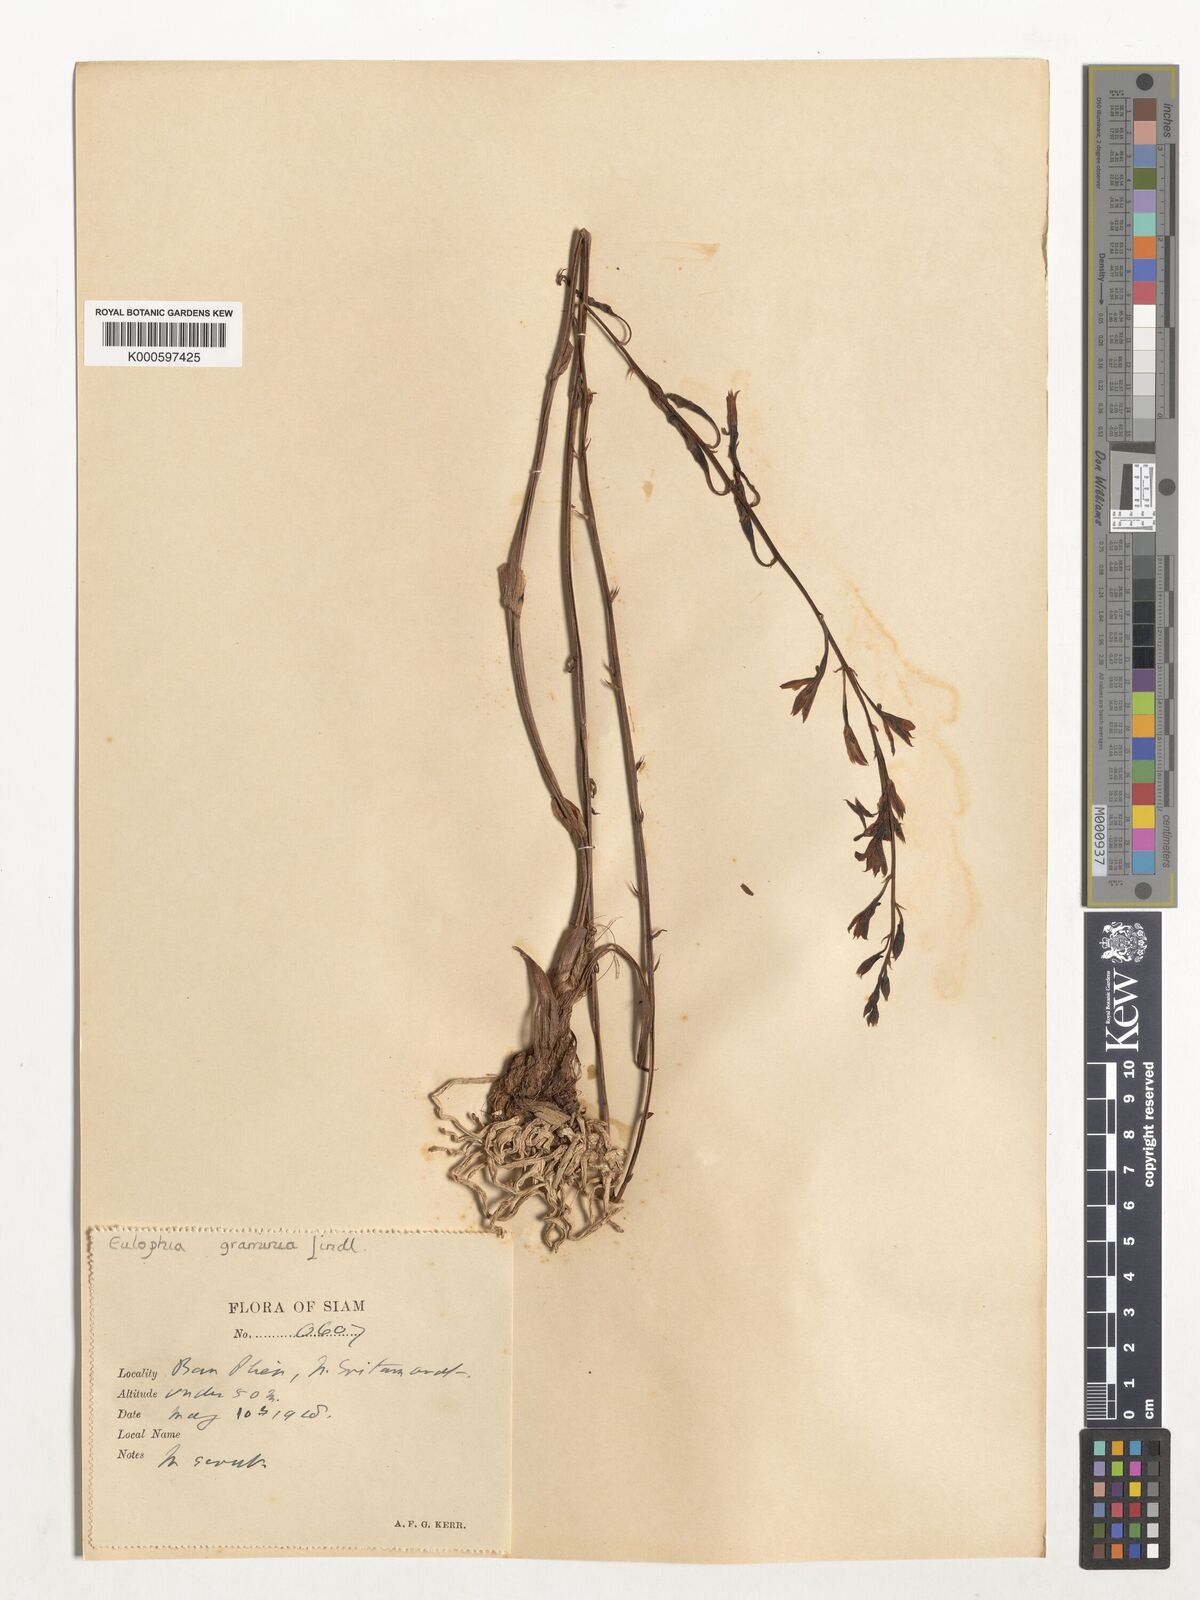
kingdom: Plantae
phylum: Tracheophyta
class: Liliopsida
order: Asparagales
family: Orchidaceae
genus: Eulophia
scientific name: Eulophia graminea
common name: Orchid
